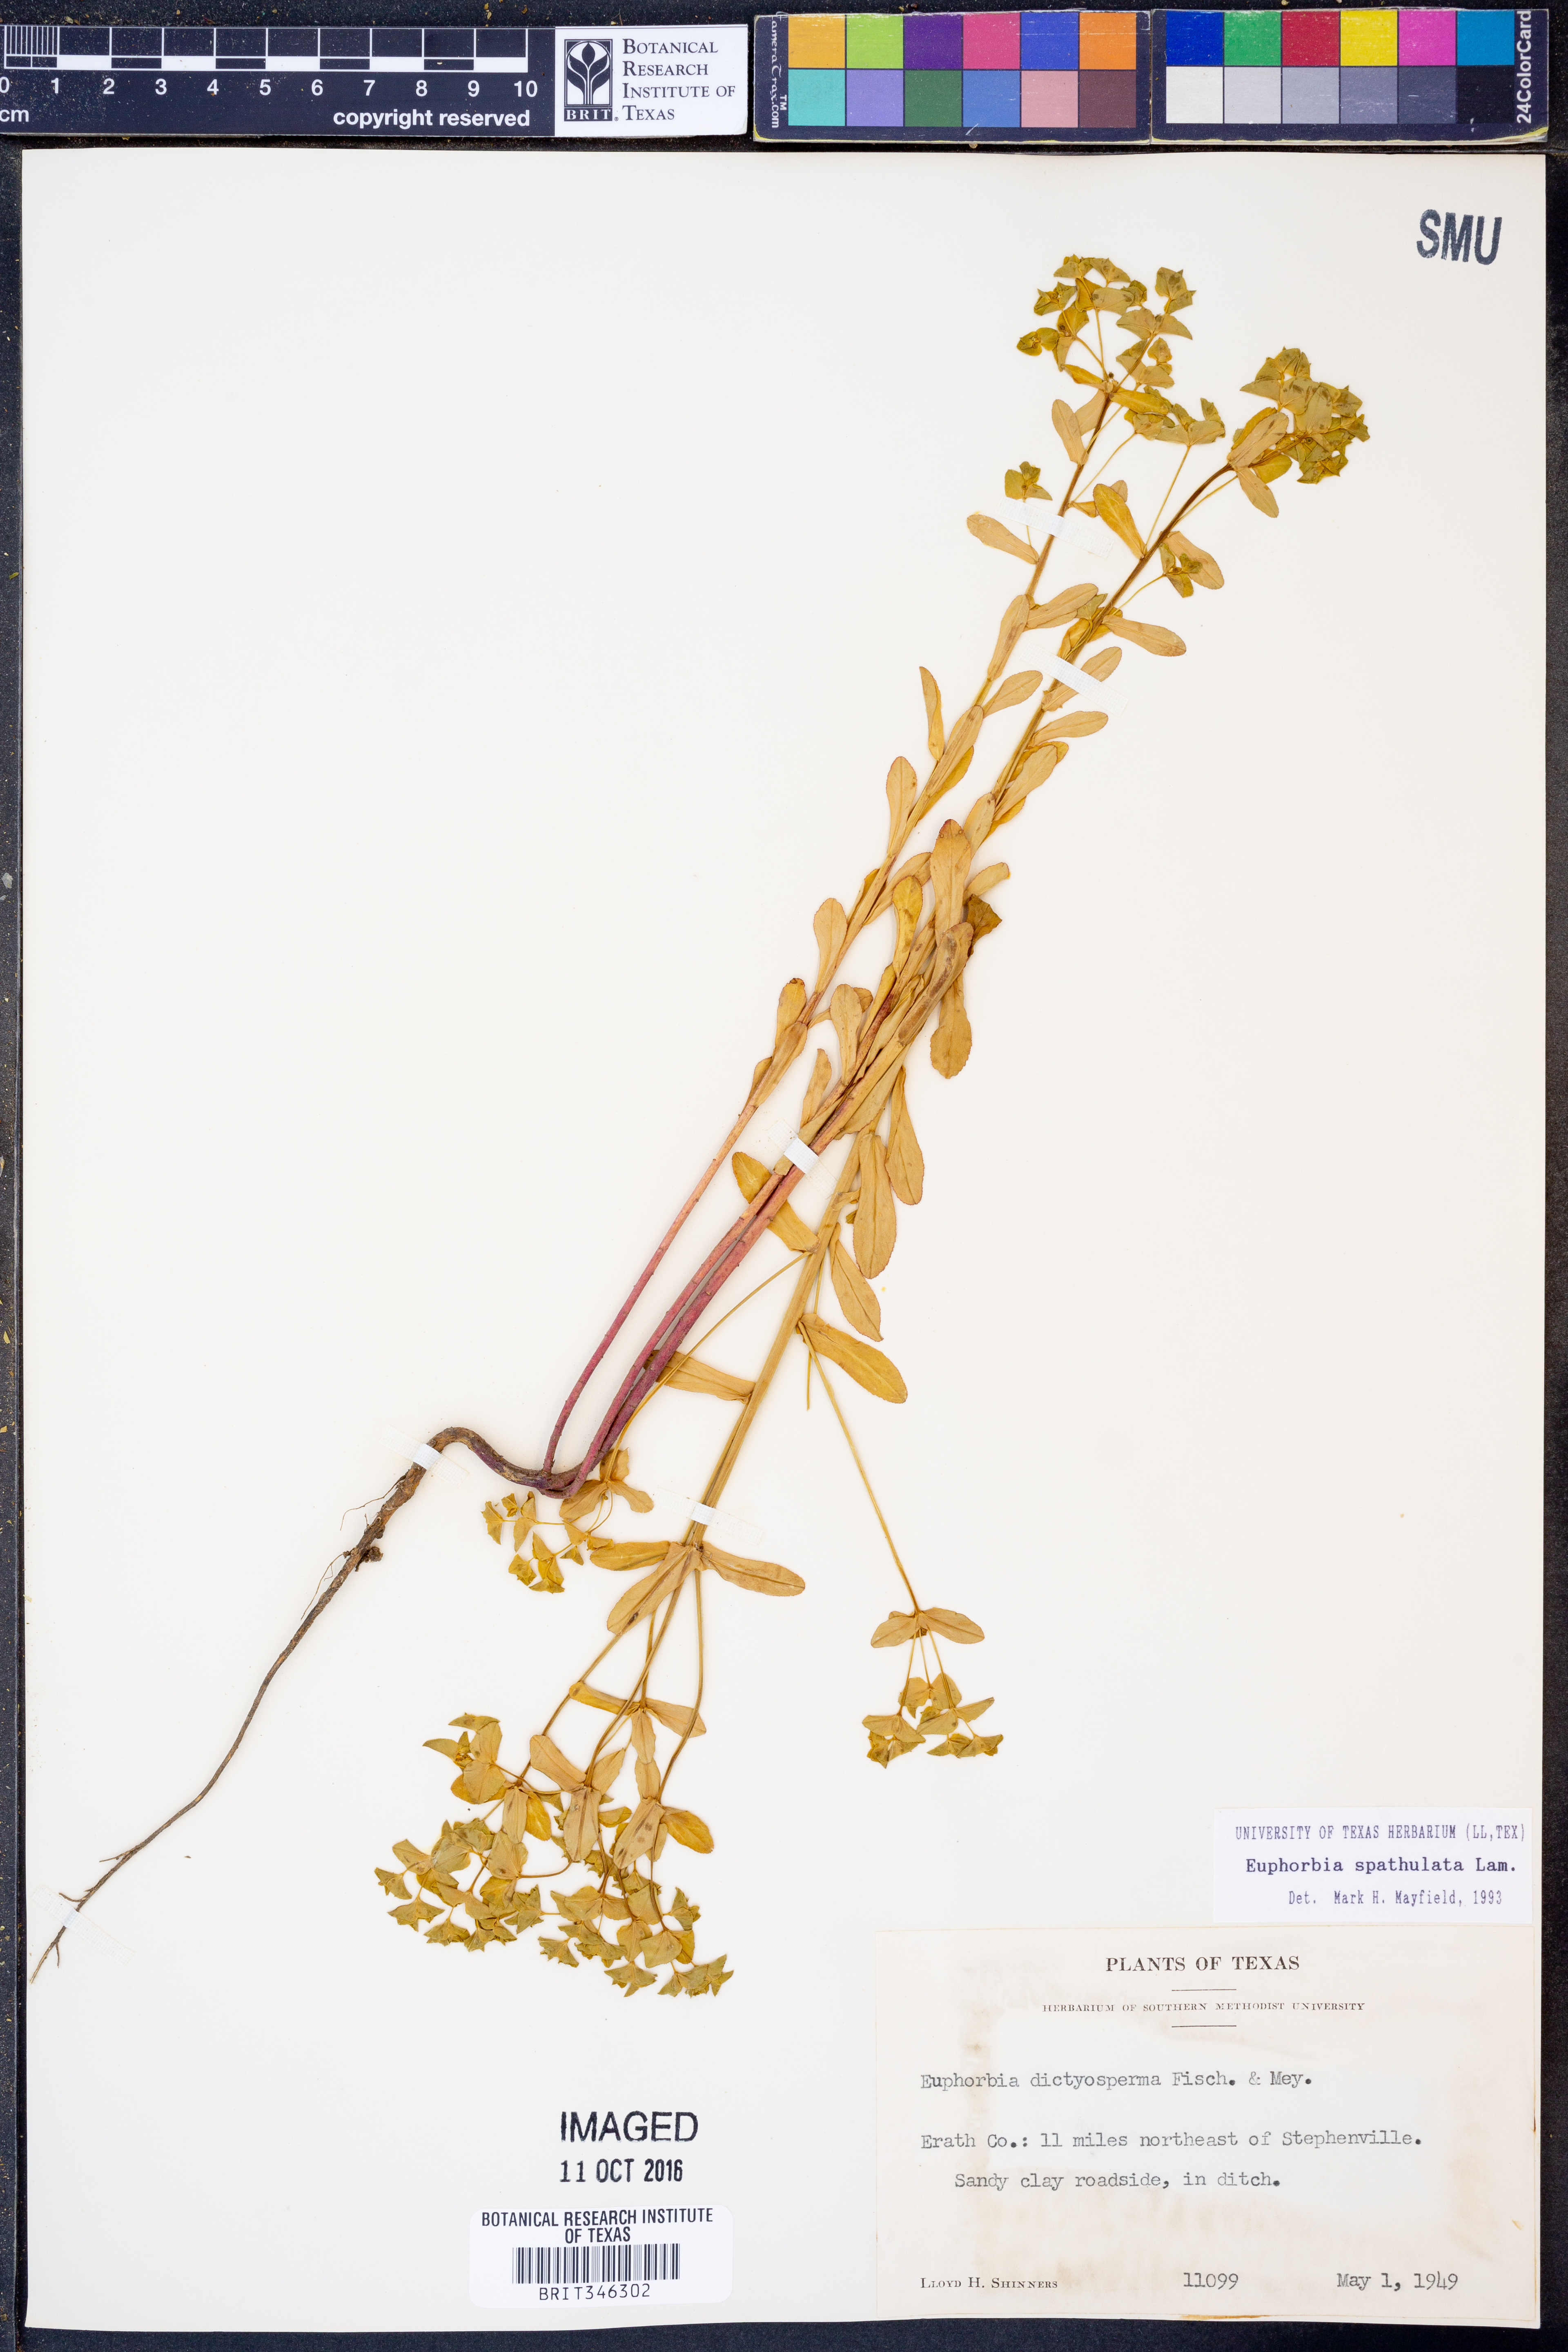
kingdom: Plantae
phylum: Tracheophyta
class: Magnoliopsida
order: Malpighiales
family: Euphorbiaceae
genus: Euphorbia
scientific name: Euphorbia spathulata
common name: Blunt spurge
